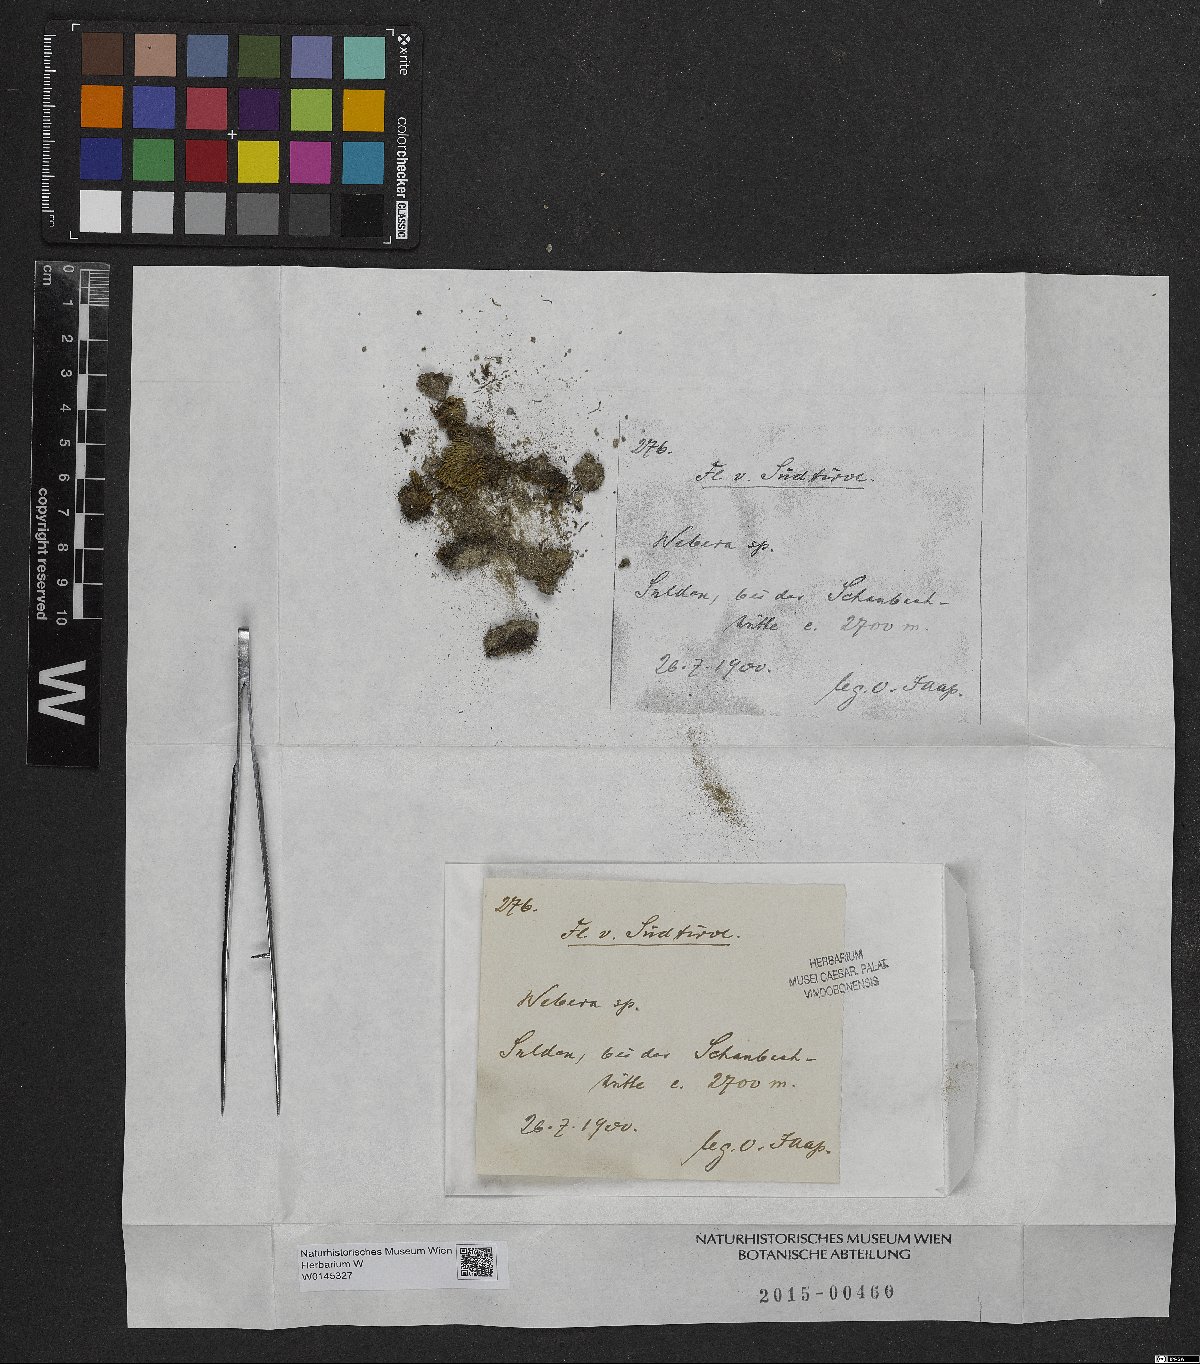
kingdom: Plantae
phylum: Tracheophyta
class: Magnoliopsida
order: Gentianales
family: Rubiaceae
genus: Webera
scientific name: Webera
